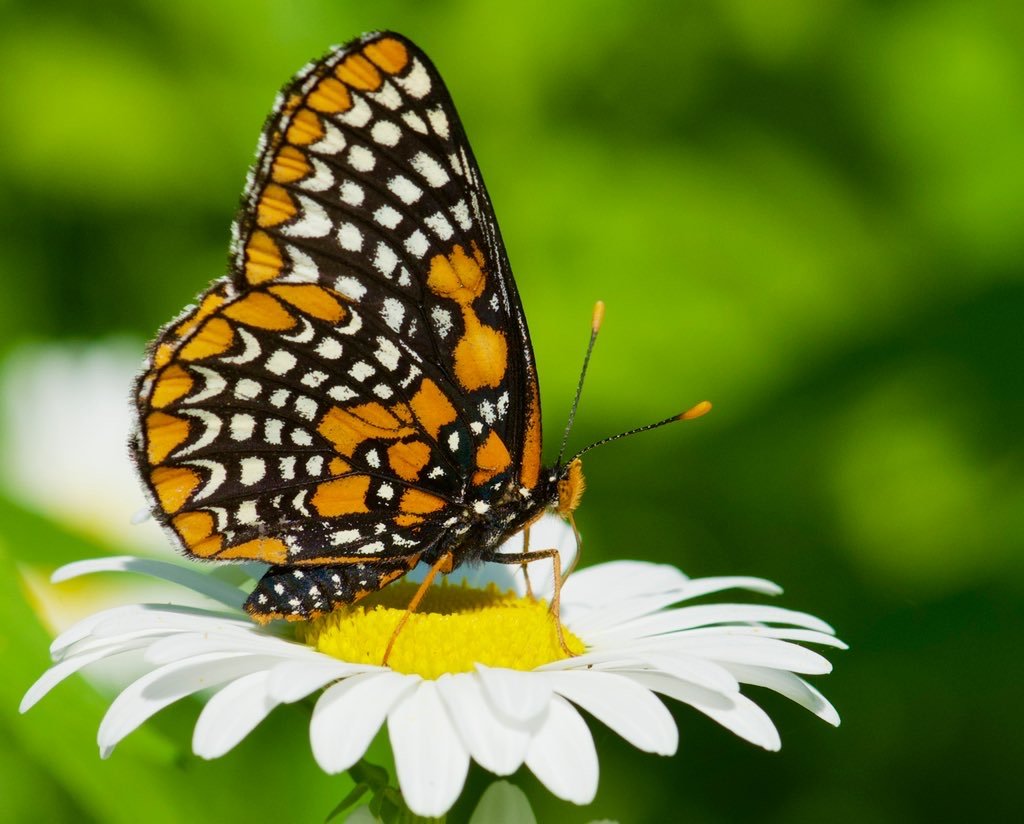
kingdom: Animalia
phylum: Arthropoda
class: Insecta
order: Lepidoptera
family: Nymphalidae
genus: Euphydryas
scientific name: Euphydryas phaeton
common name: Baltimore Checkerspot
